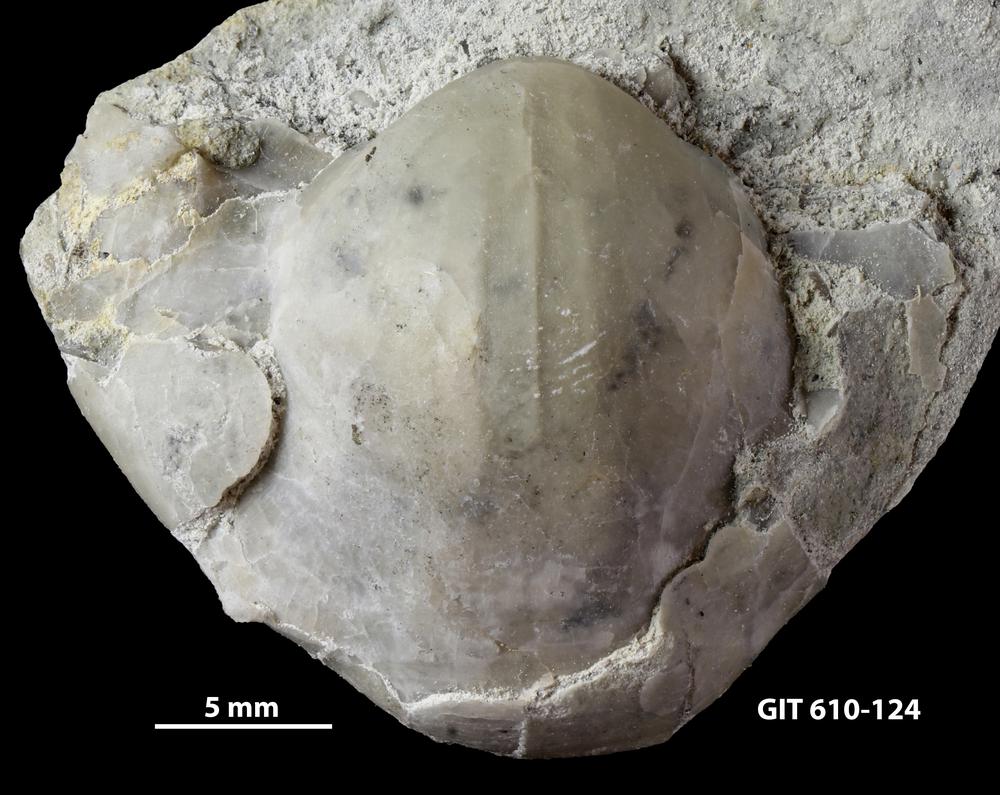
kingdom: Animalia
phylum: Brachiopoda
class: Rhynchonellata
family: Triplesiidae
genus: Triplesia
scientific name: Triplesia insularis
